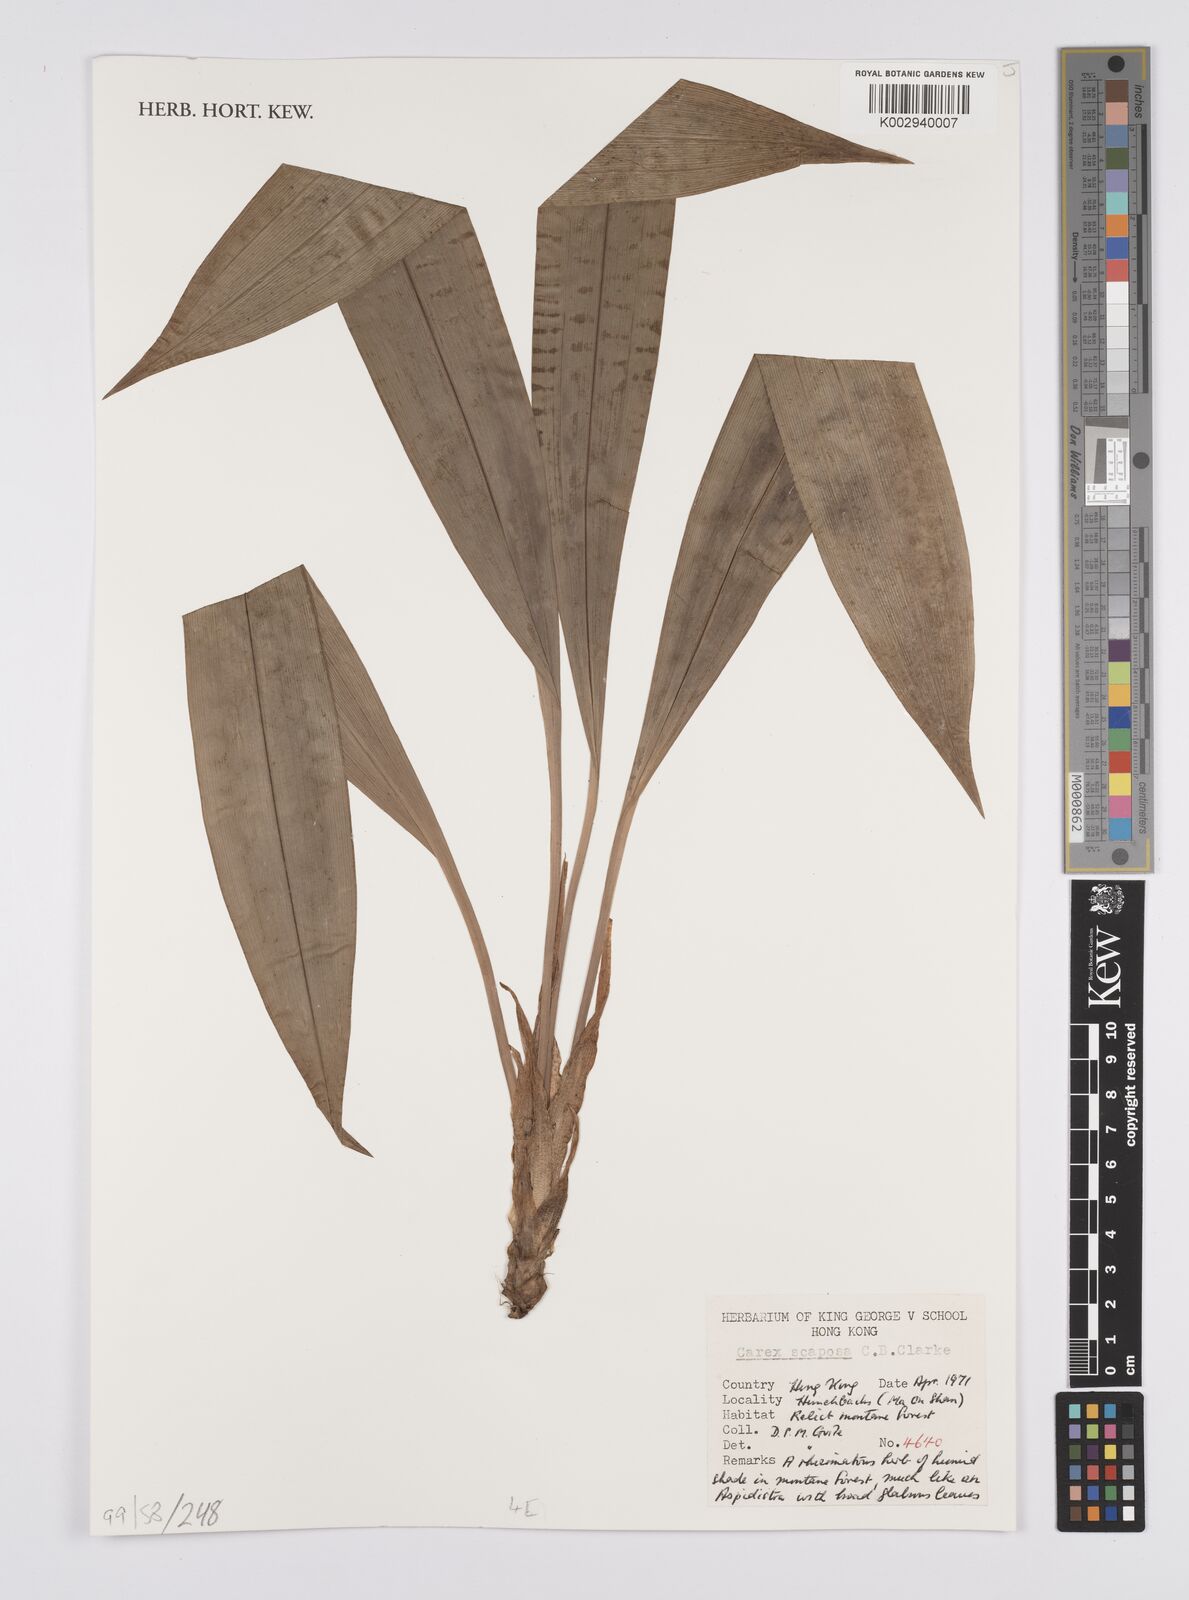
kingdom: Plantae
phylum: Tracheophyta
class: Liliopsida
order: Poales
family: Cyperaceae
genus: Carex
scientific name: Carex scaposa
